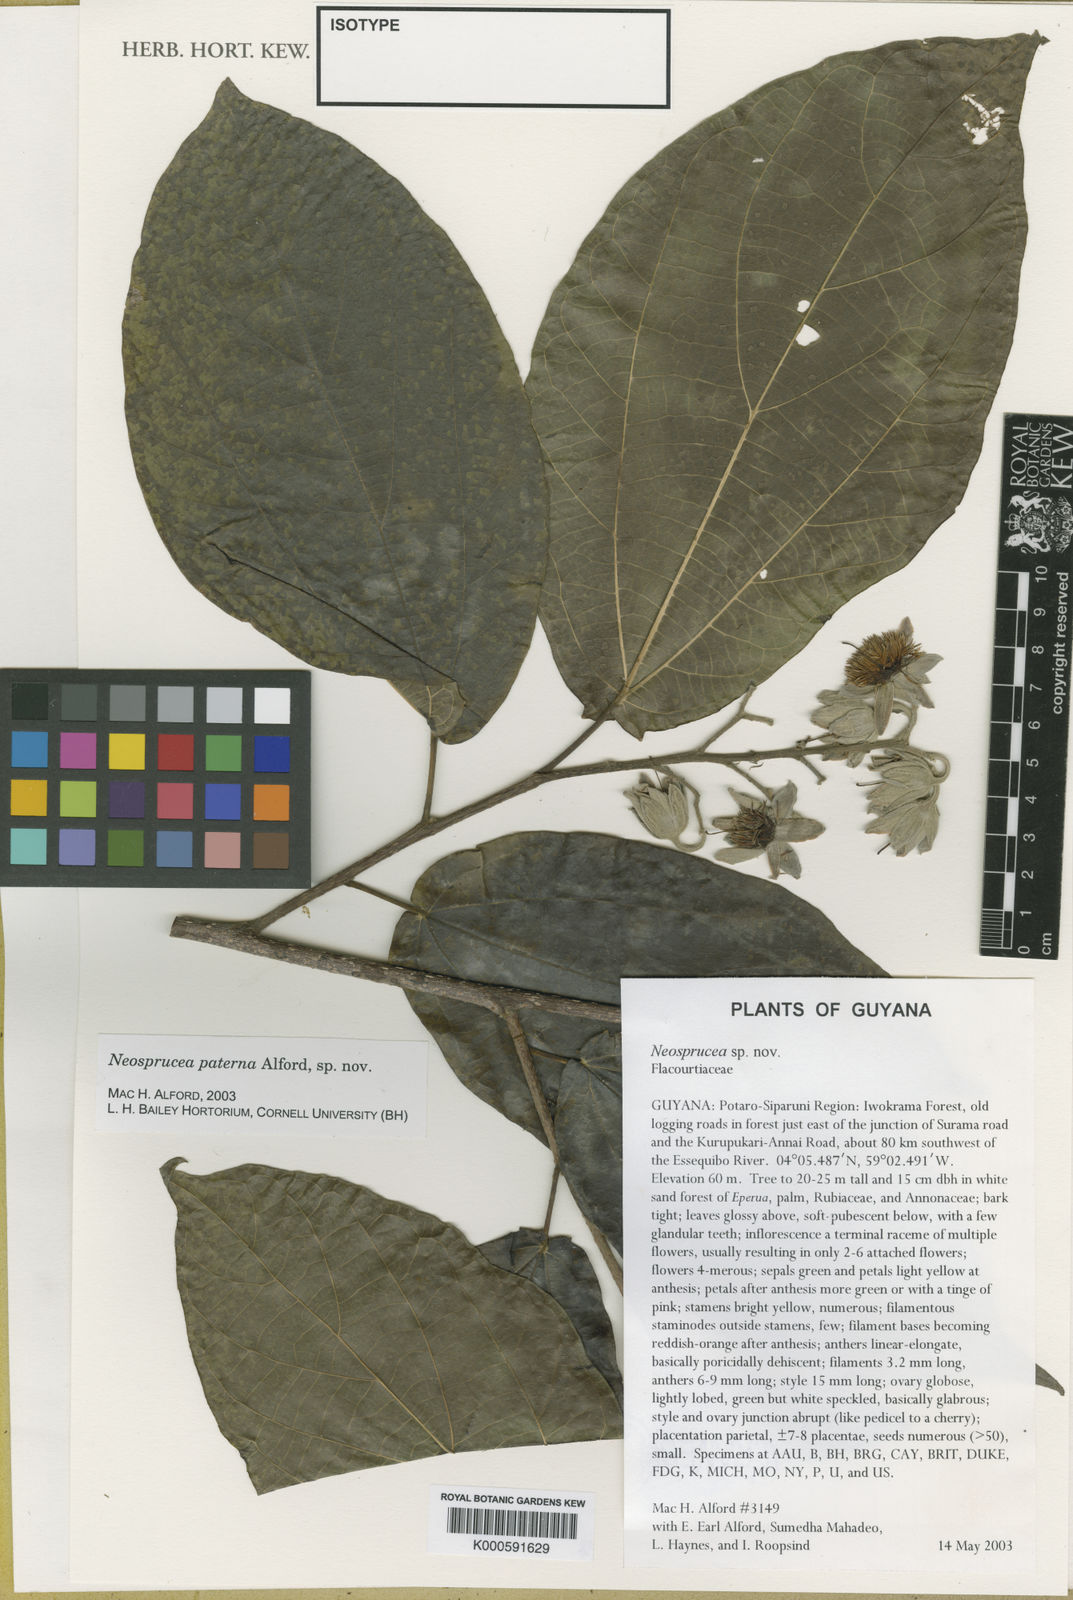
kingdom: Plantae
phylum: Tracheophyta
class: Magnoliopsida
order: Malpighiales
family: Salicaceae
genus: Neosprucea
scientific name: Neosprucea paterna
